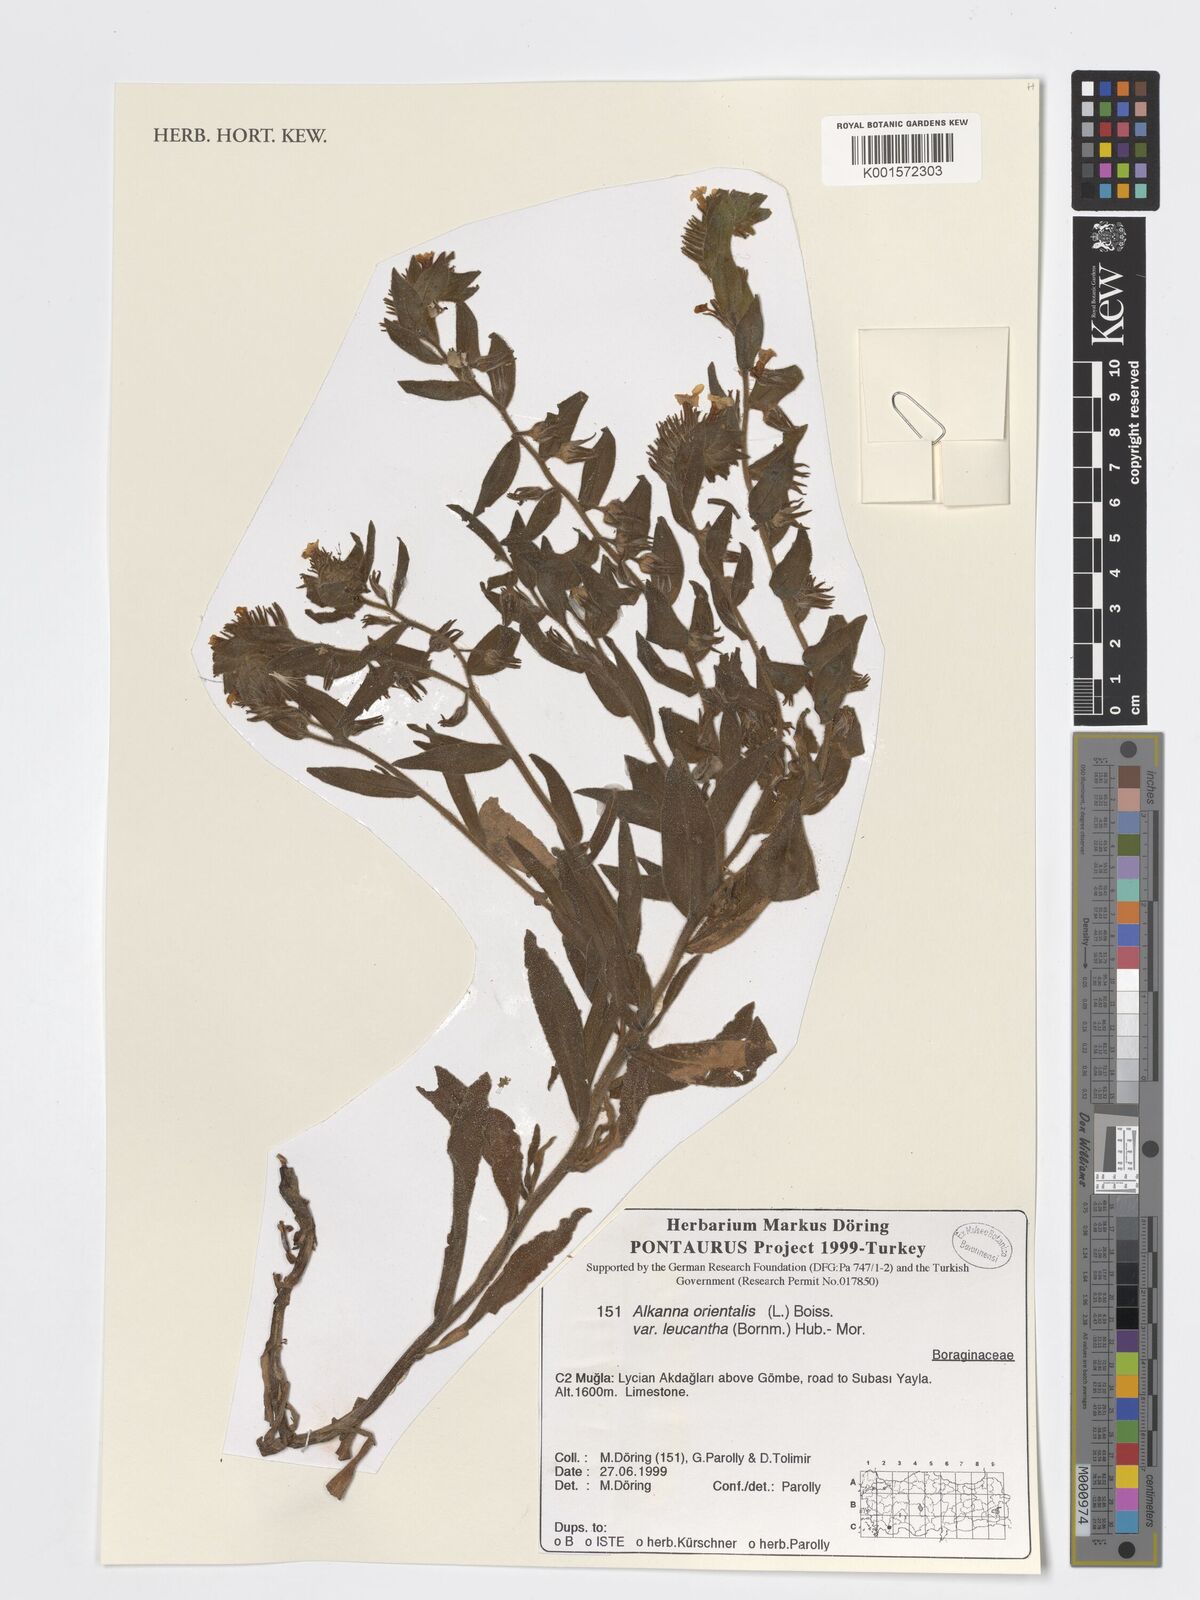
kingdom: Plantae
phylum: Tracheophyta
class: Magnoliopsida
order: Boraginales
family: Boraginaceae
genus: Alkanna
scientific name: Alkanna orientalis
